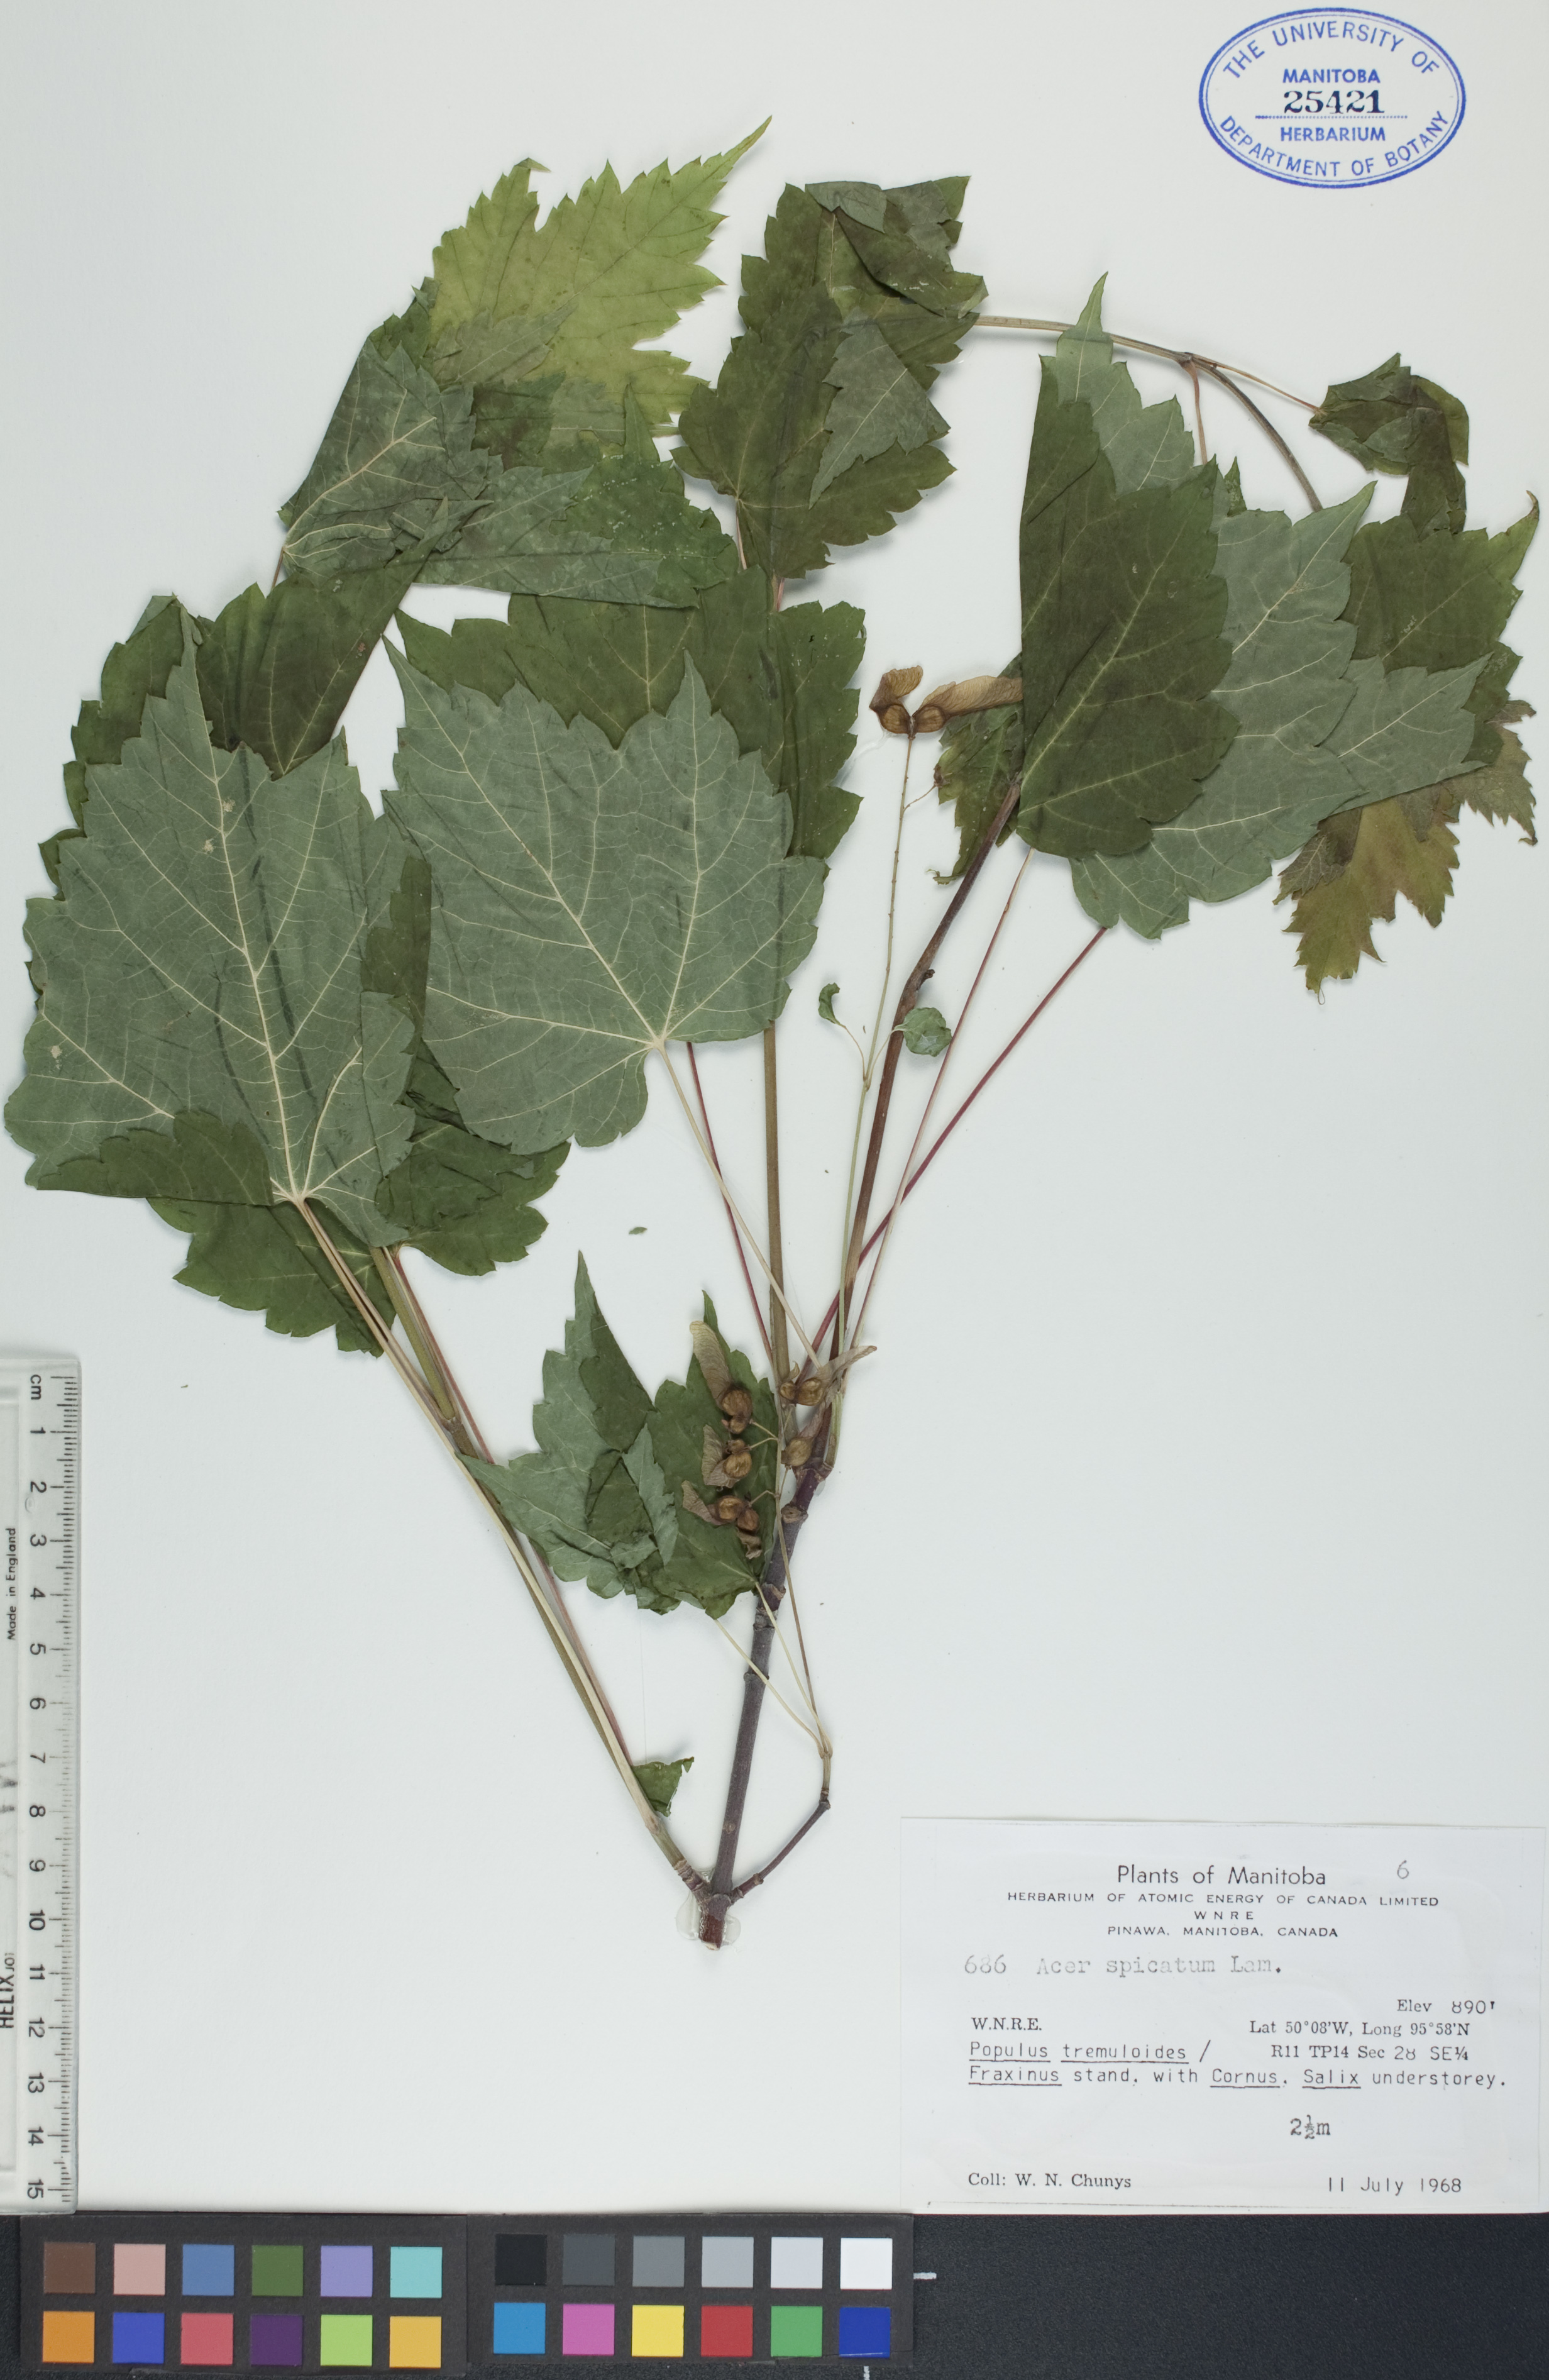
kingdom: Plantae
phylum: Tracheophyta
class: Magnoliopsida
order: Sapindales
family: Sapindaceae
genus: Acer
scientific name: Acer spicatum
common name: Mountain maple
